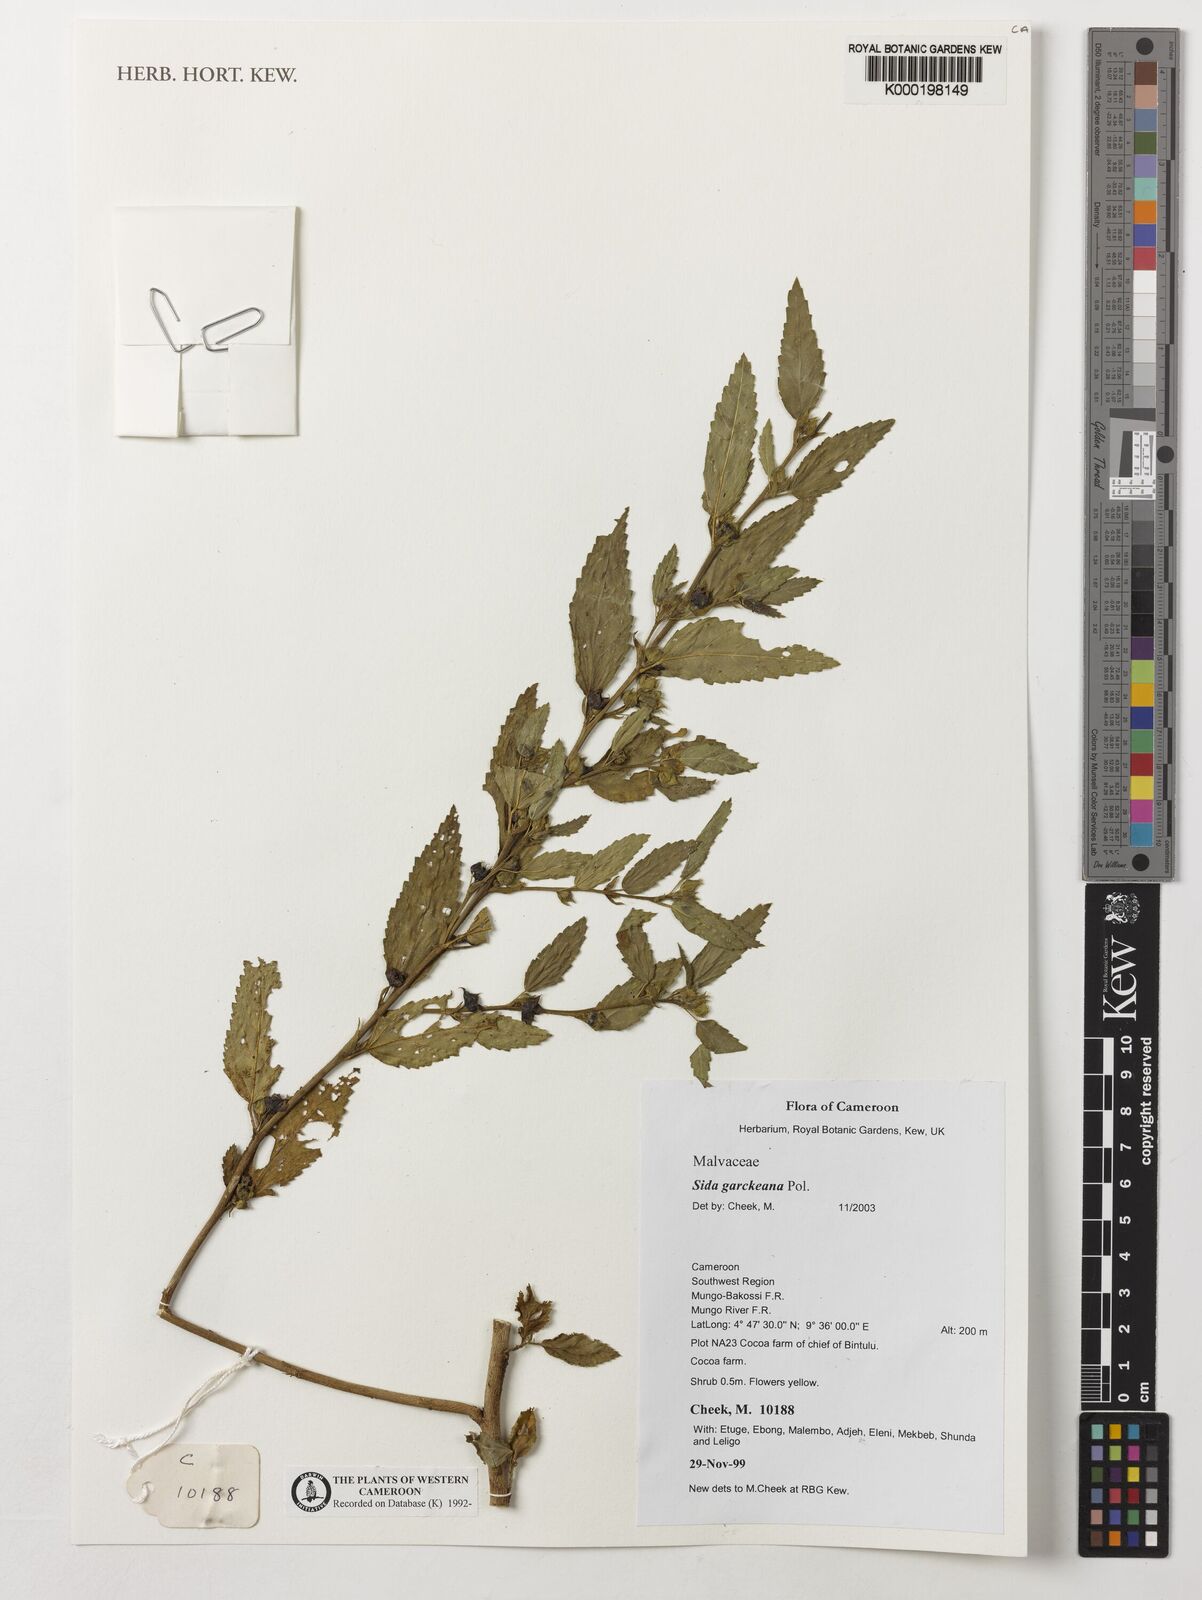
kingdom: Plantae
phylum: Tracheophyta
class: Magnoliopsida
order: Malvales
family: Malvaceae
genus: Sida
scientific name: Sida acuta
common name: Common wireweed
